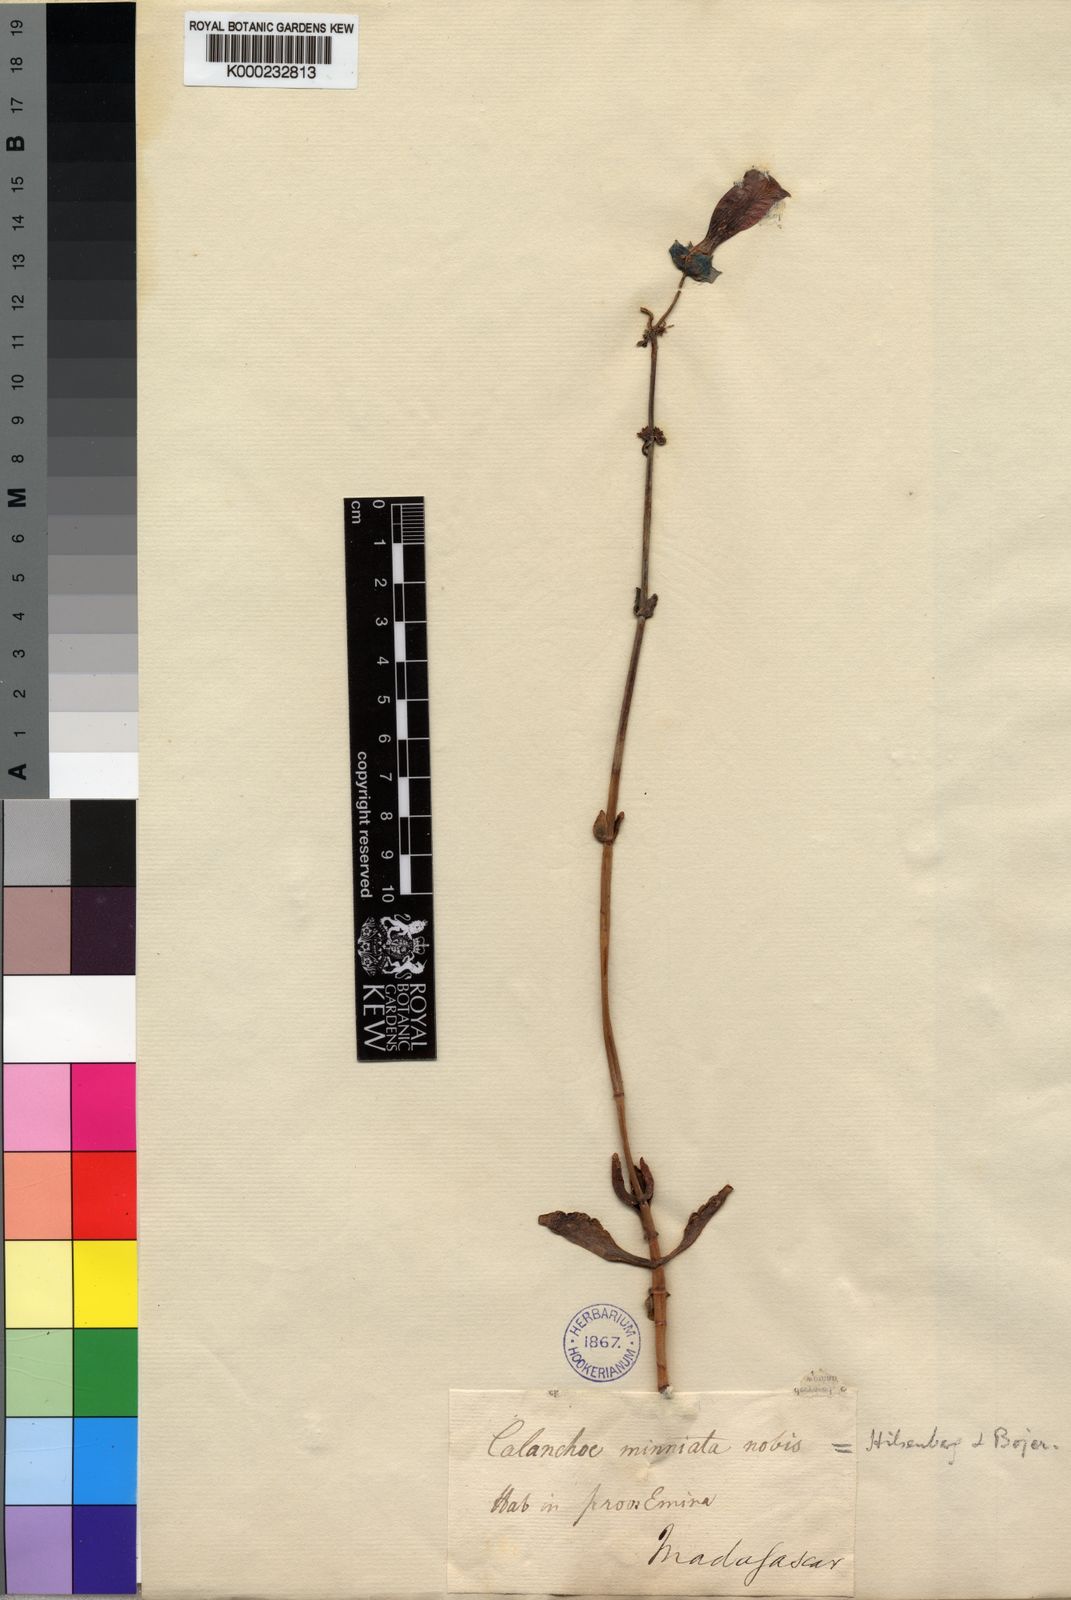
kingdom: Chromista
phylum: Ciliophora
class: Gymnostomatea
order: Spathidiida
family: Spathidiidae
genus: Bryophyllum
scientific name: Bryophyllum
